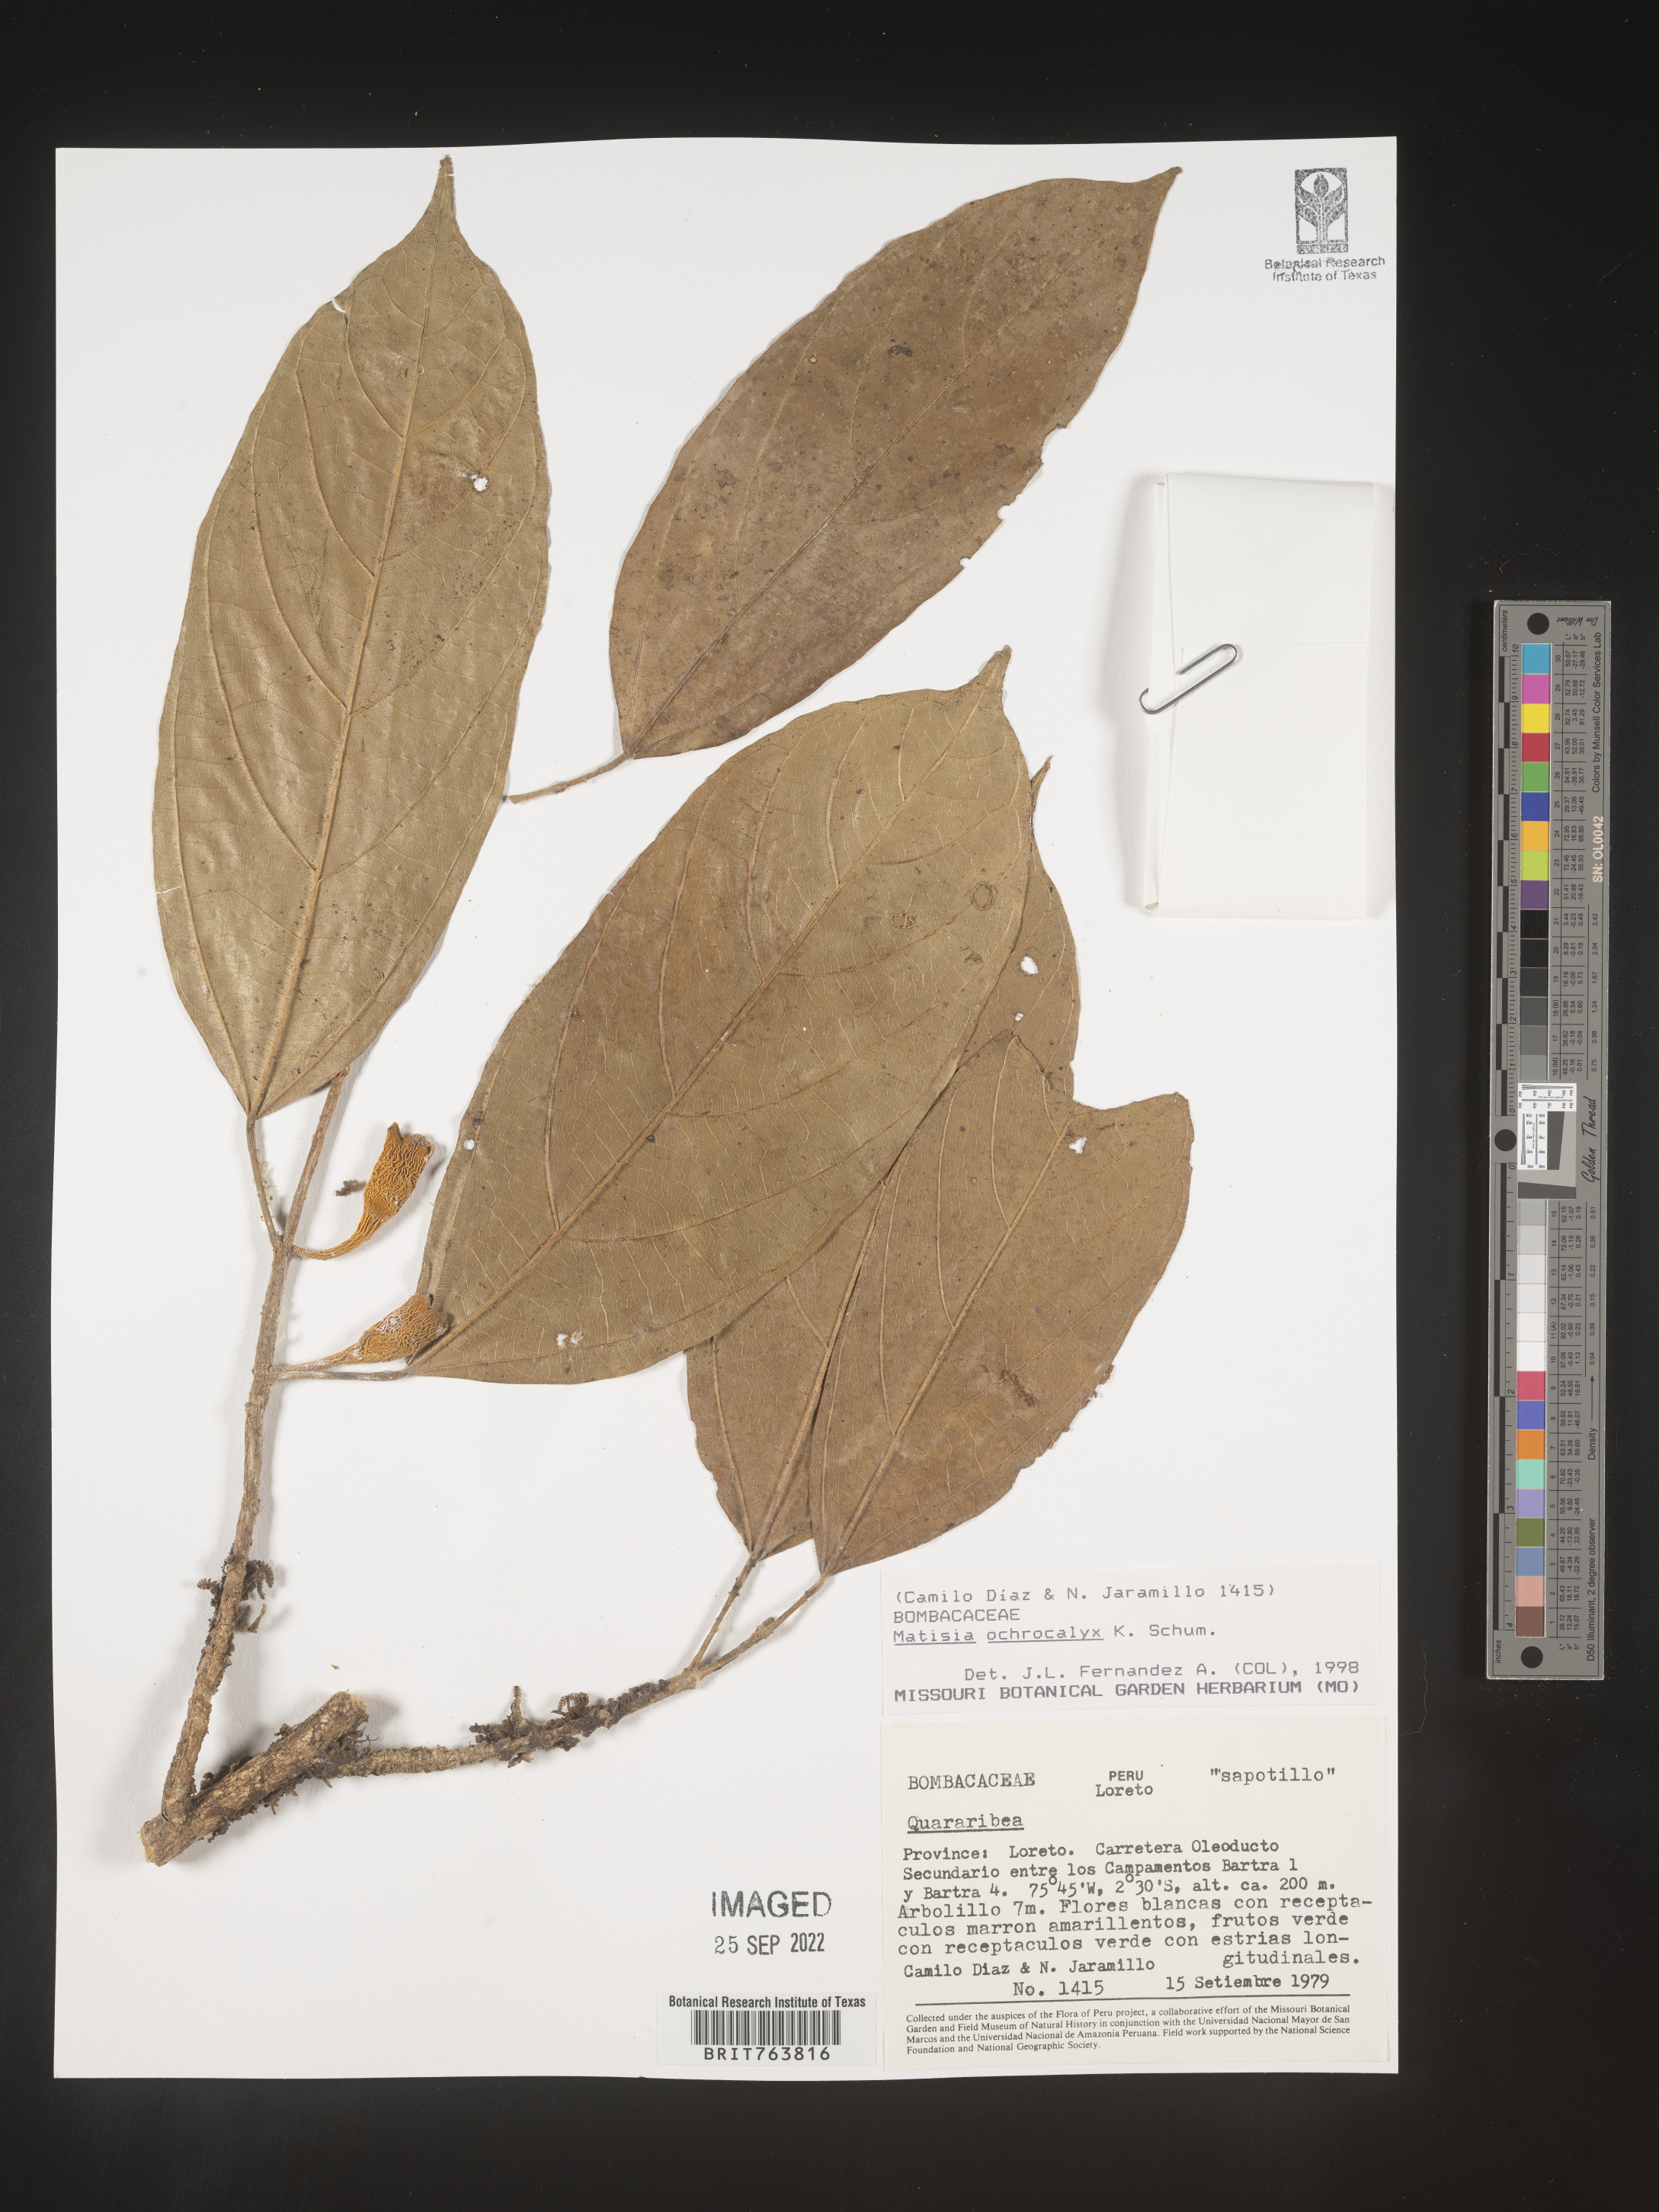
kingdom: Plantae
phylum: Tracheophyta
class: Magnoliopsida
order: Malvales
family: Malvaceae
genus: Matisia
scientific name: Matisia
